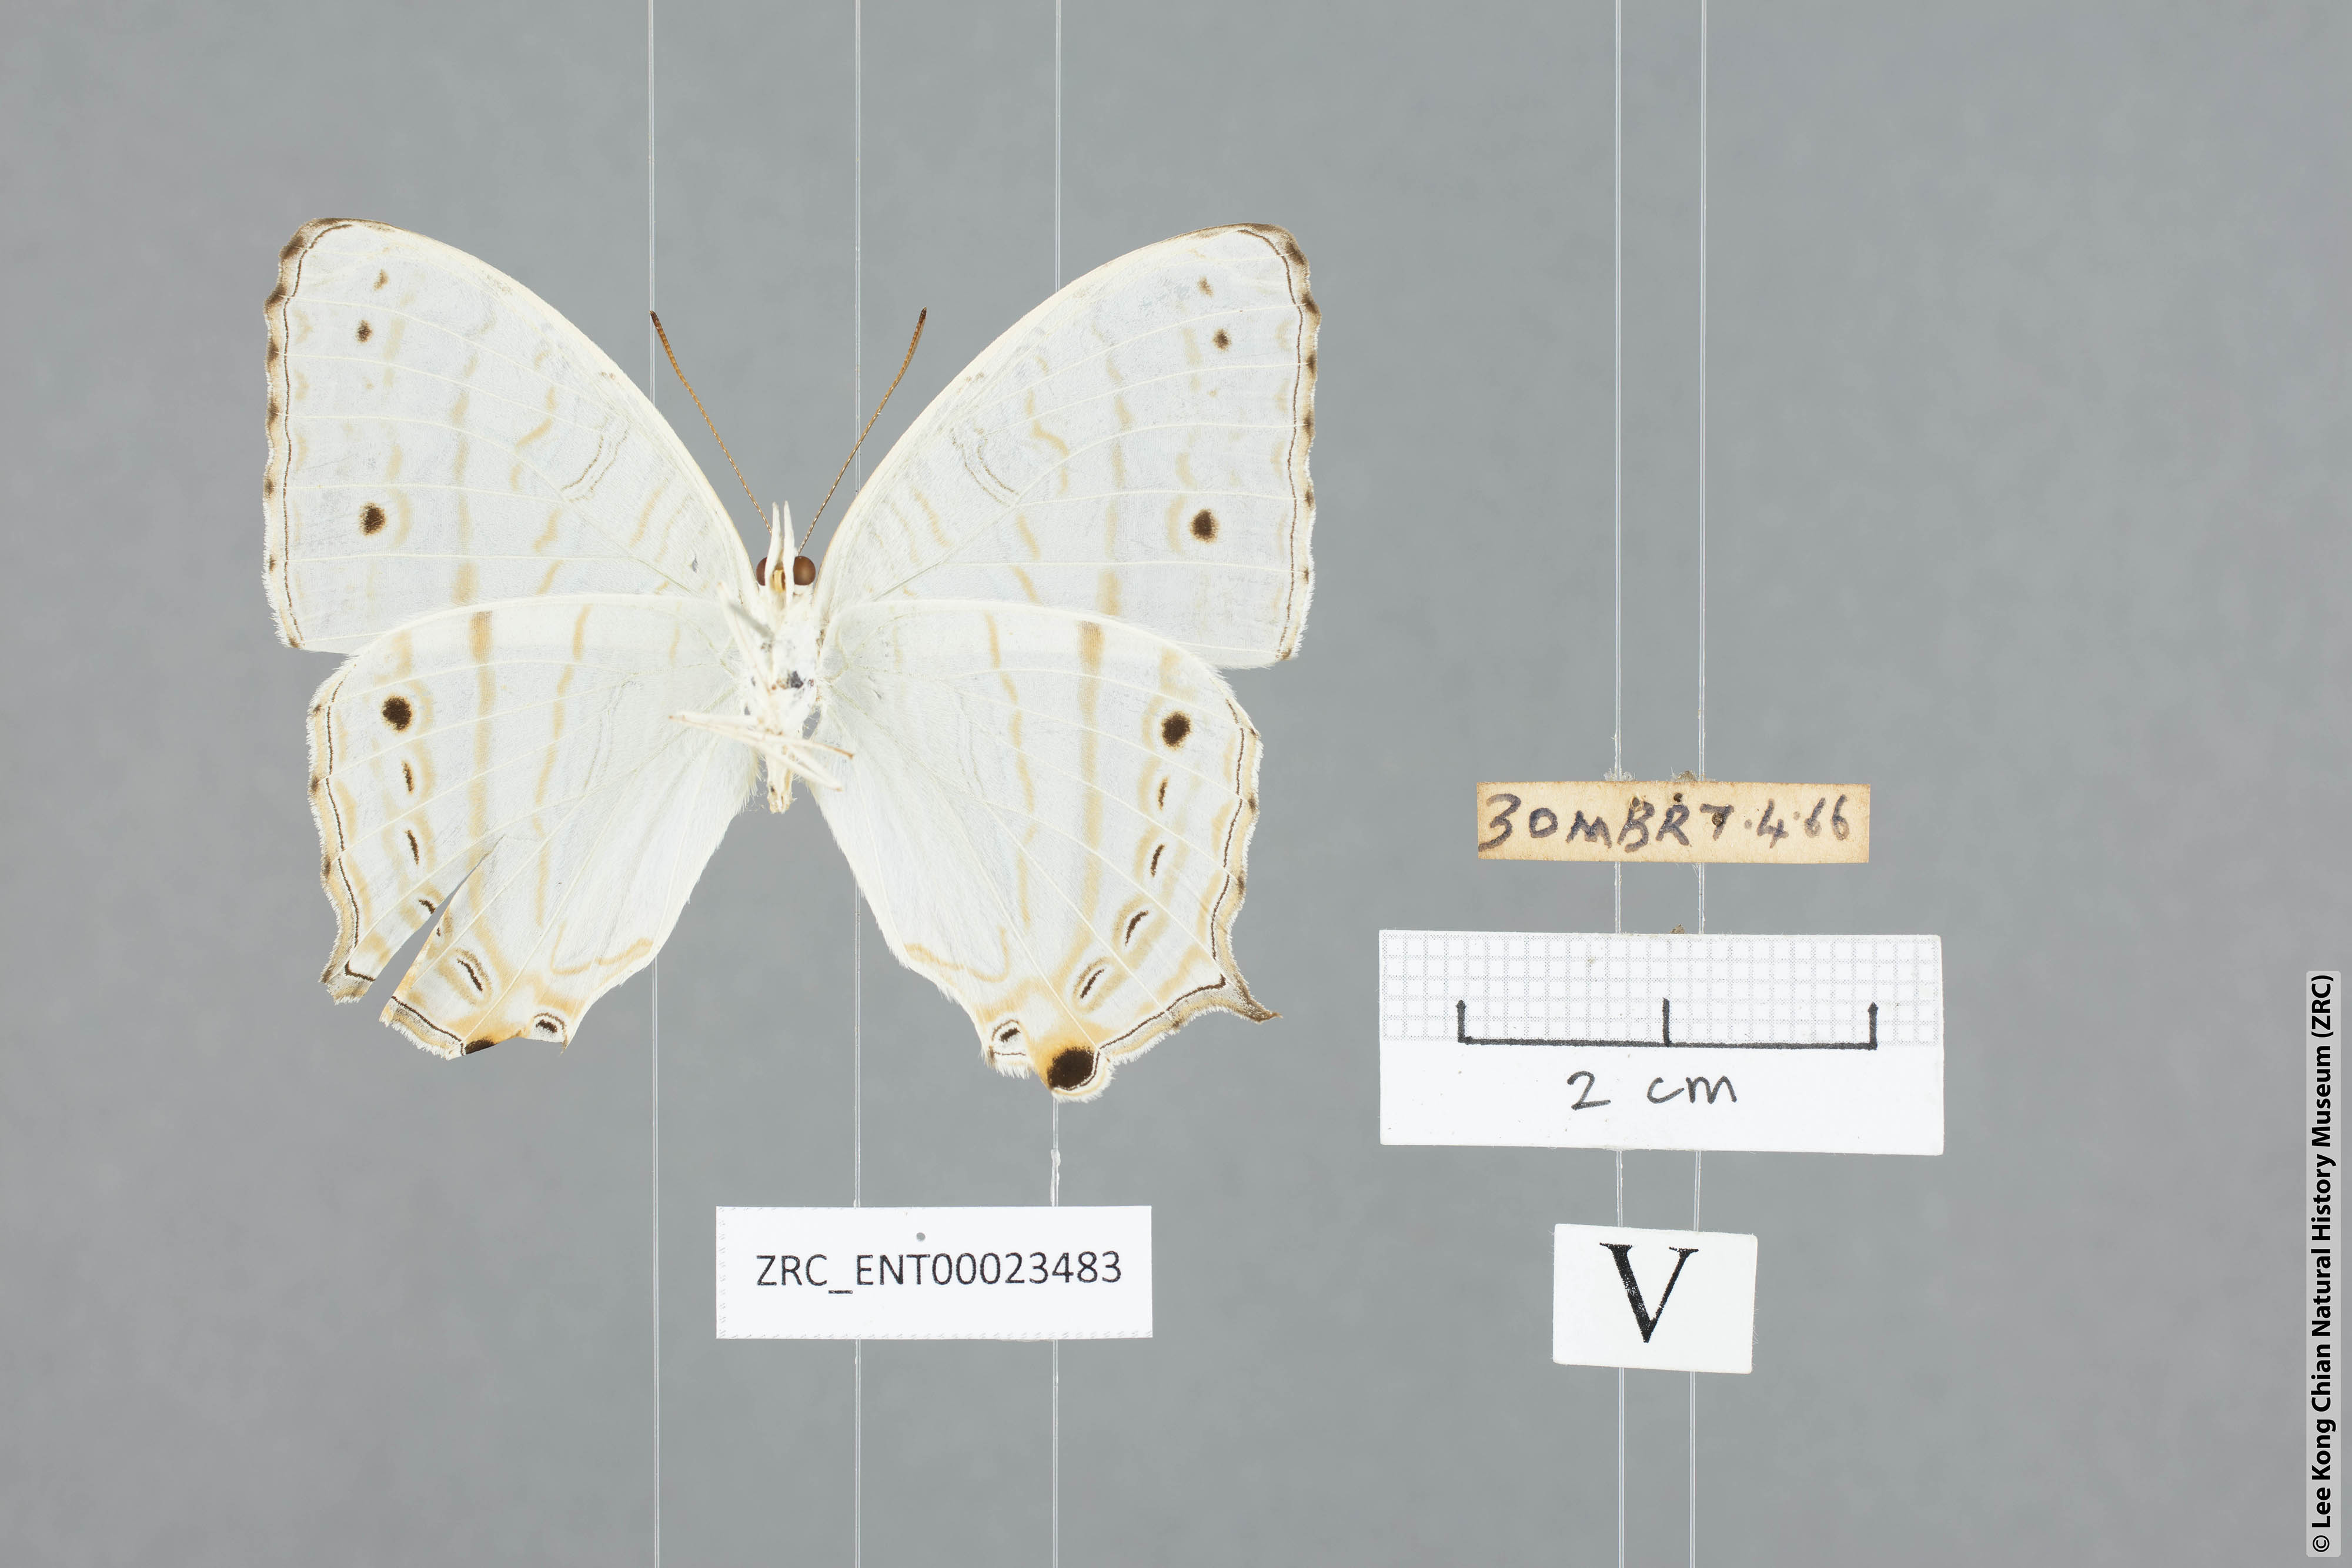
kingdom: Animalia
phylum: Arthropoda
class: Insecta
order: Lepidoptera
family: Nymphalidae
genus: Cyrestis
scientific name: Cyrestis cocles
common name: Marbled map
